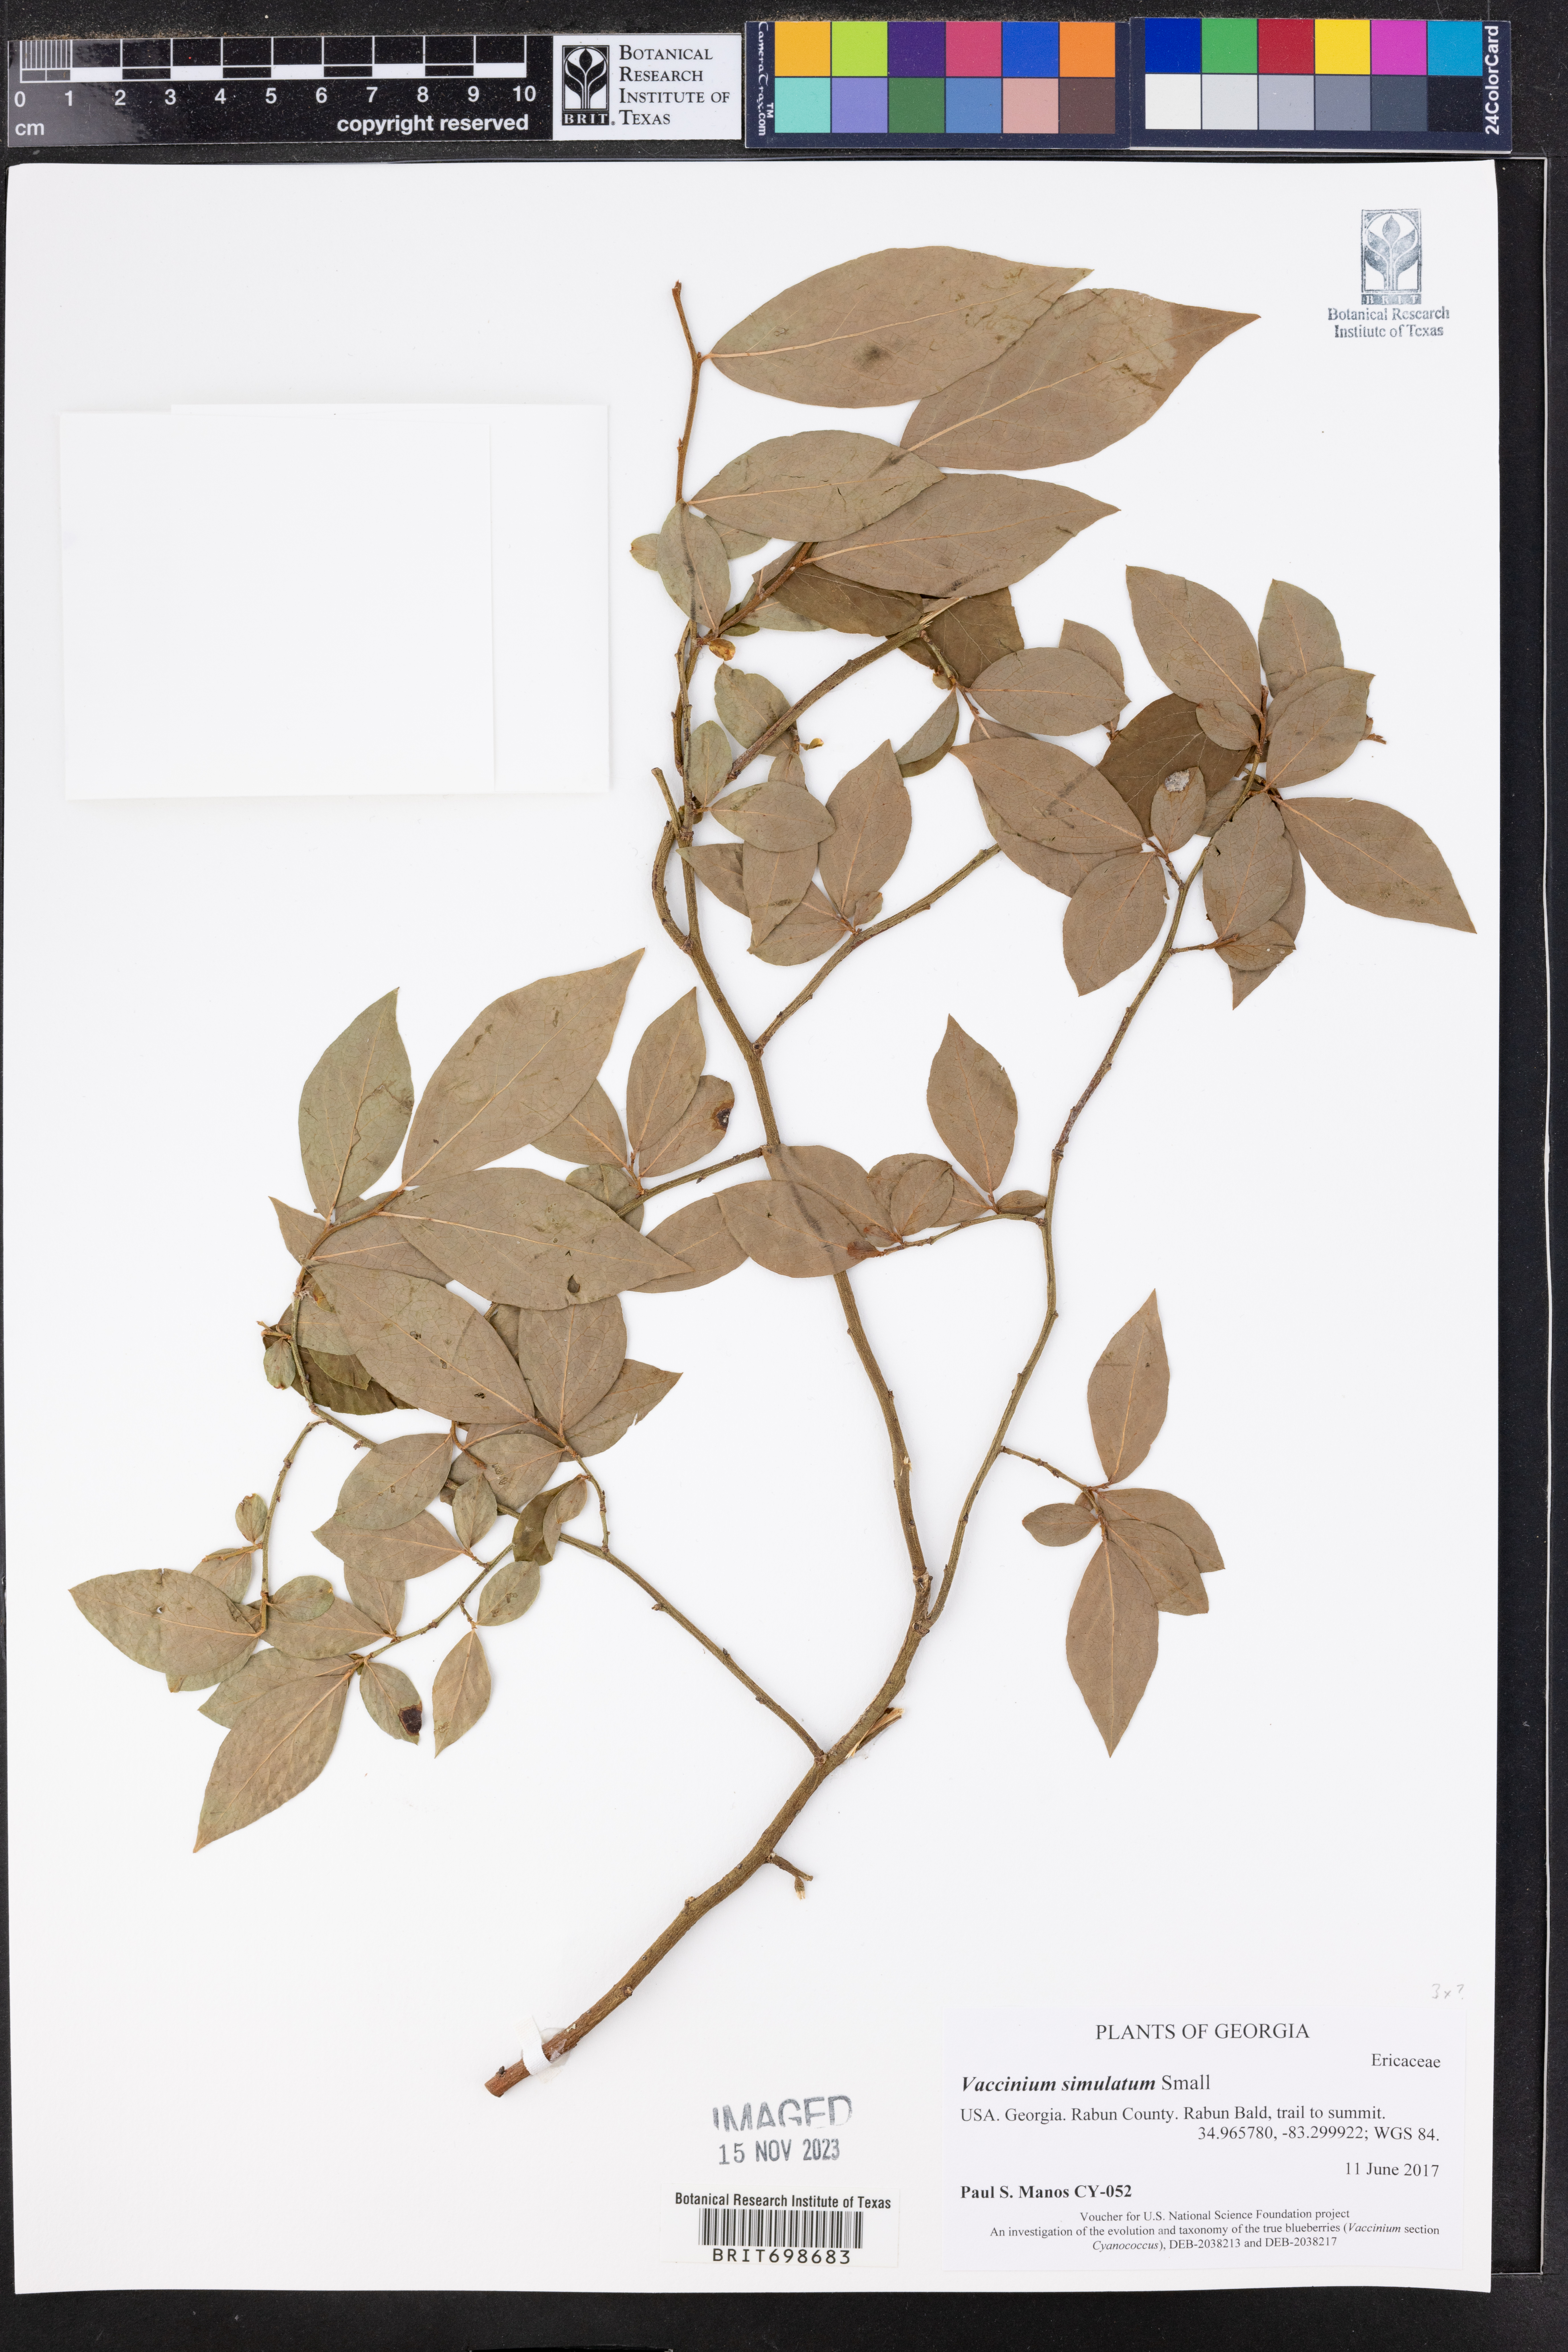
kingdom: Plantae
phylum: Tracheophyta
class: Magnoliopsida
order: Ericales
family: Ericaceae
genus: Vaccinium
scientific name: Vaccinium corymbosum
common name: Blueberry
